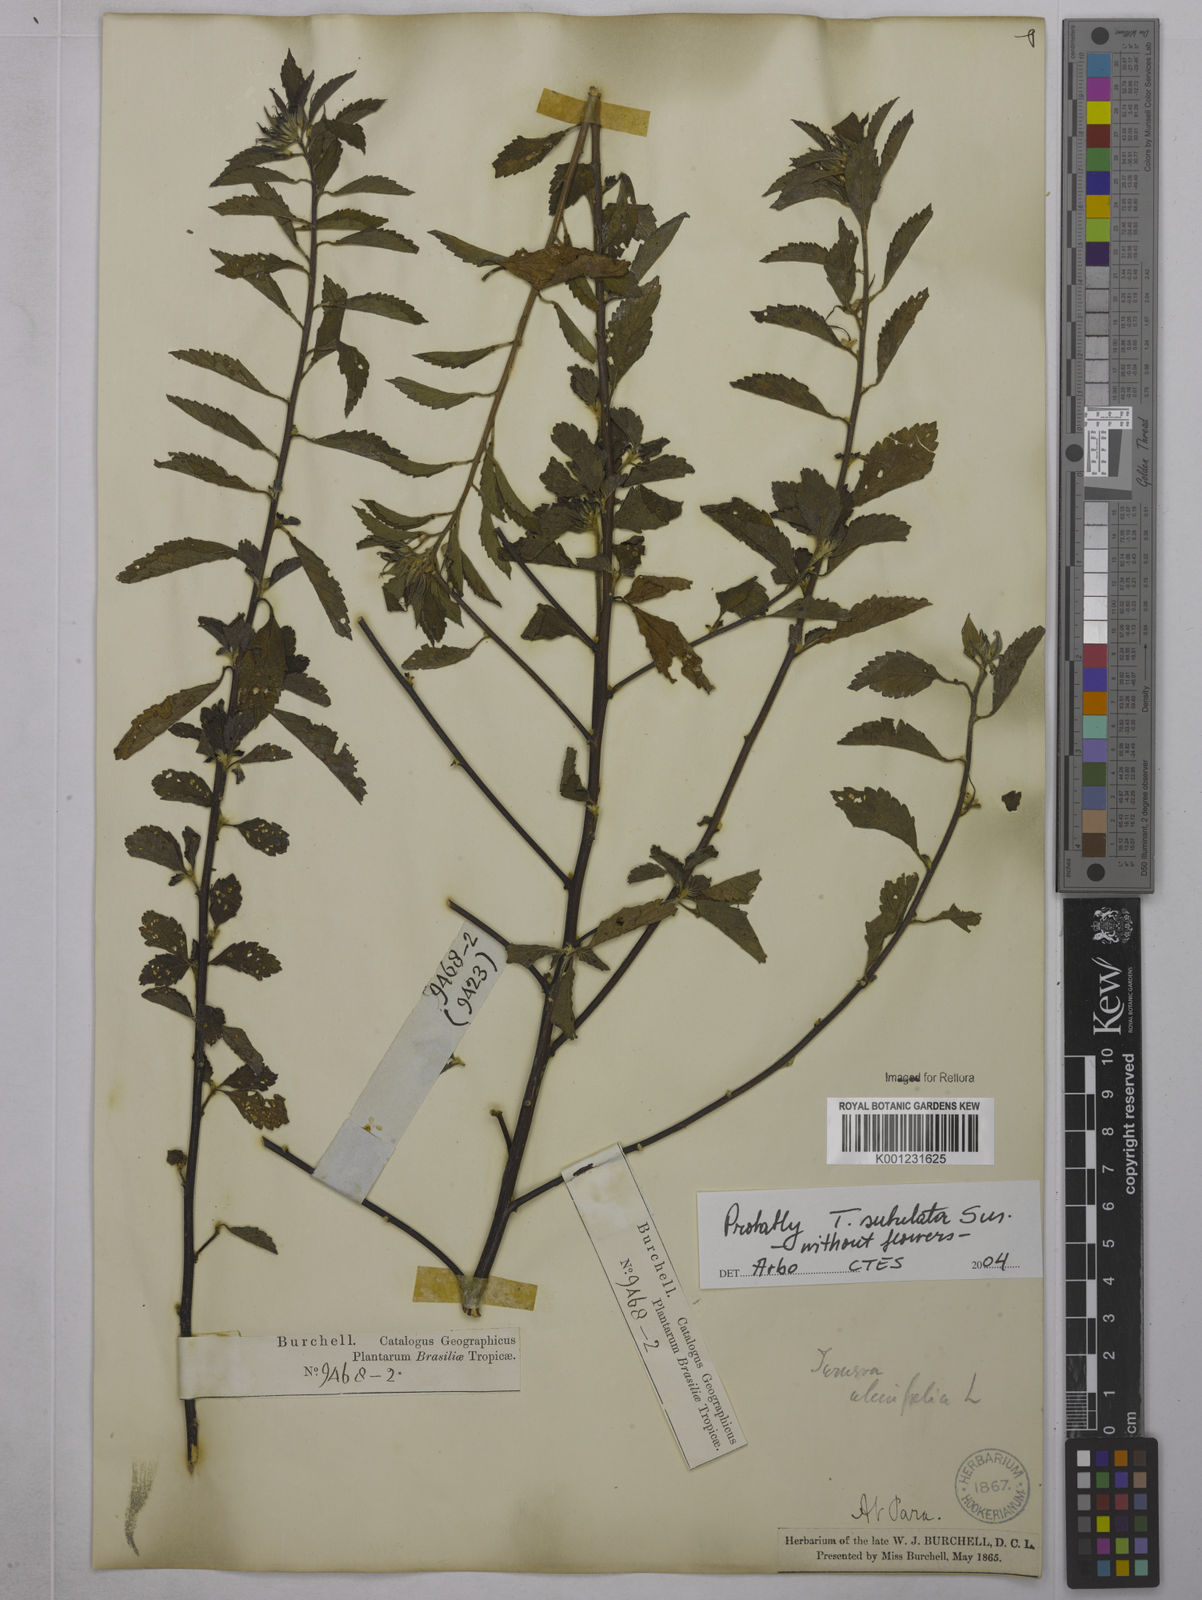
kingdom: Plantae
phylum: Tracheophyta
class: Magnoliopsida
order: Malpighiales
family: Turneraceae
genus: Turnera
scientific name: Turnera ulmifolia
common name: Ramgoat dashalong
